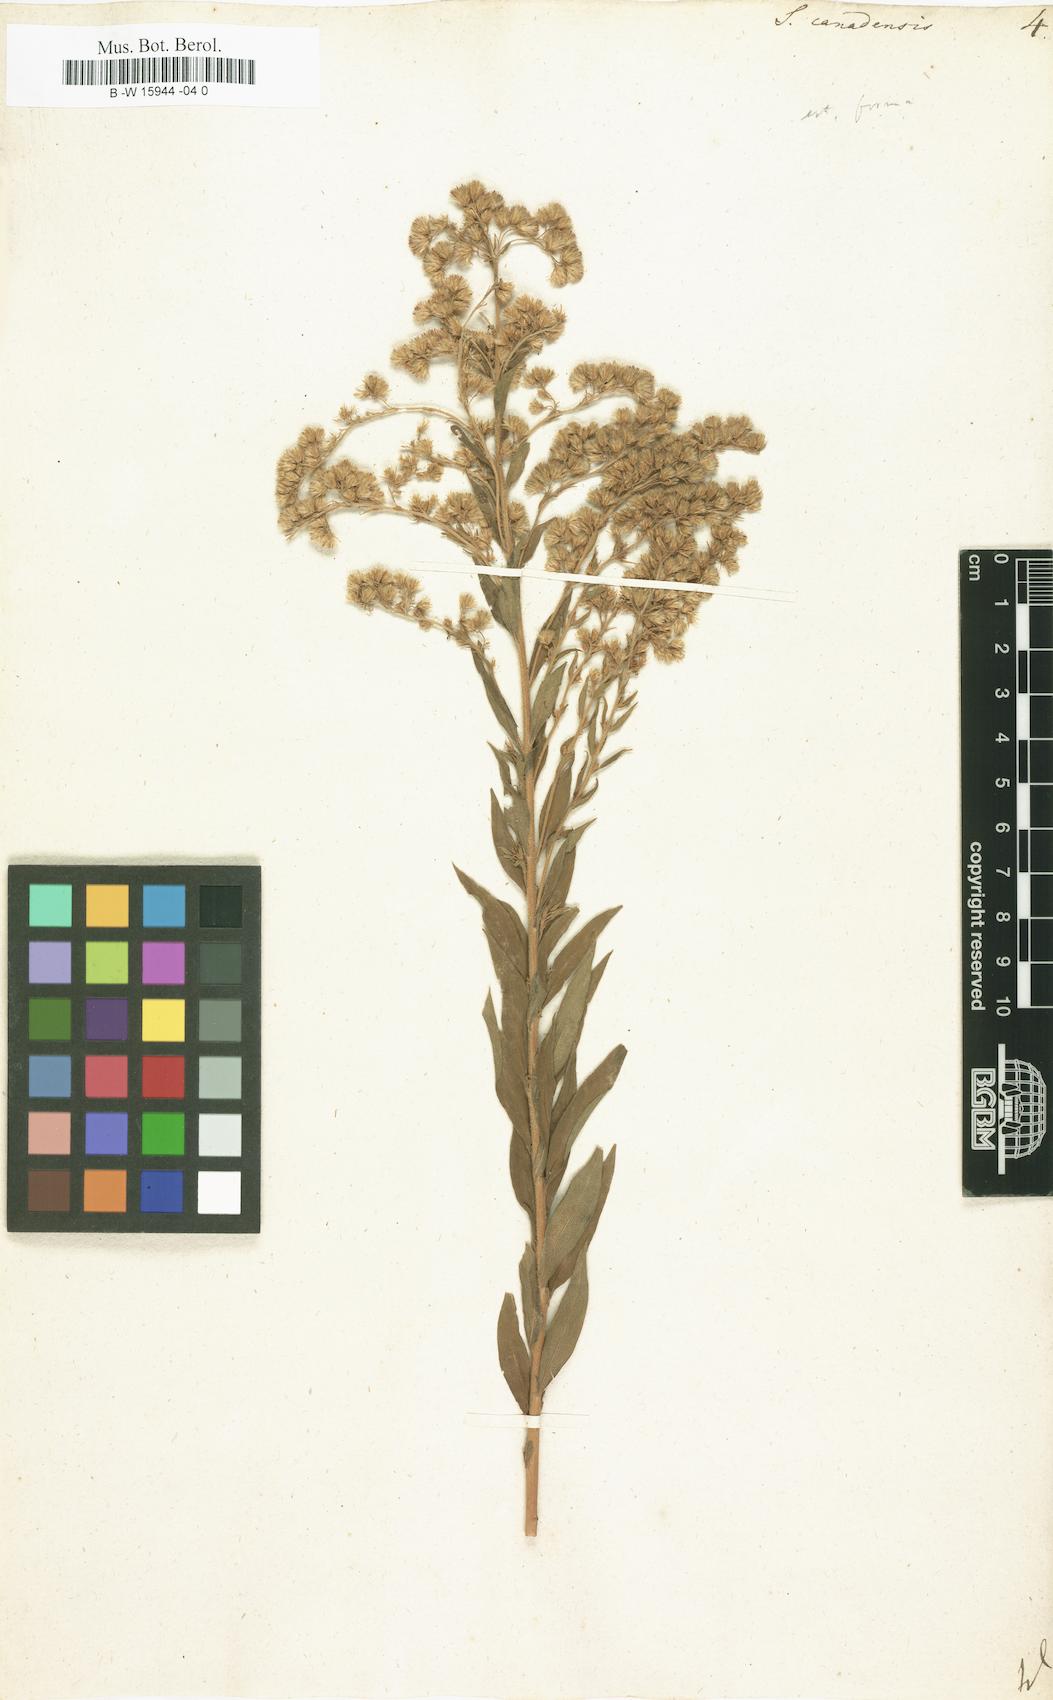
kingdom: Plantae
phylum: Tracheophyta
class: Magnoliopsida
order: Asterales
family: Asteraceae
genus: Solidago
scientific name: Solidago canadensis
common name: Canada goldenrod
